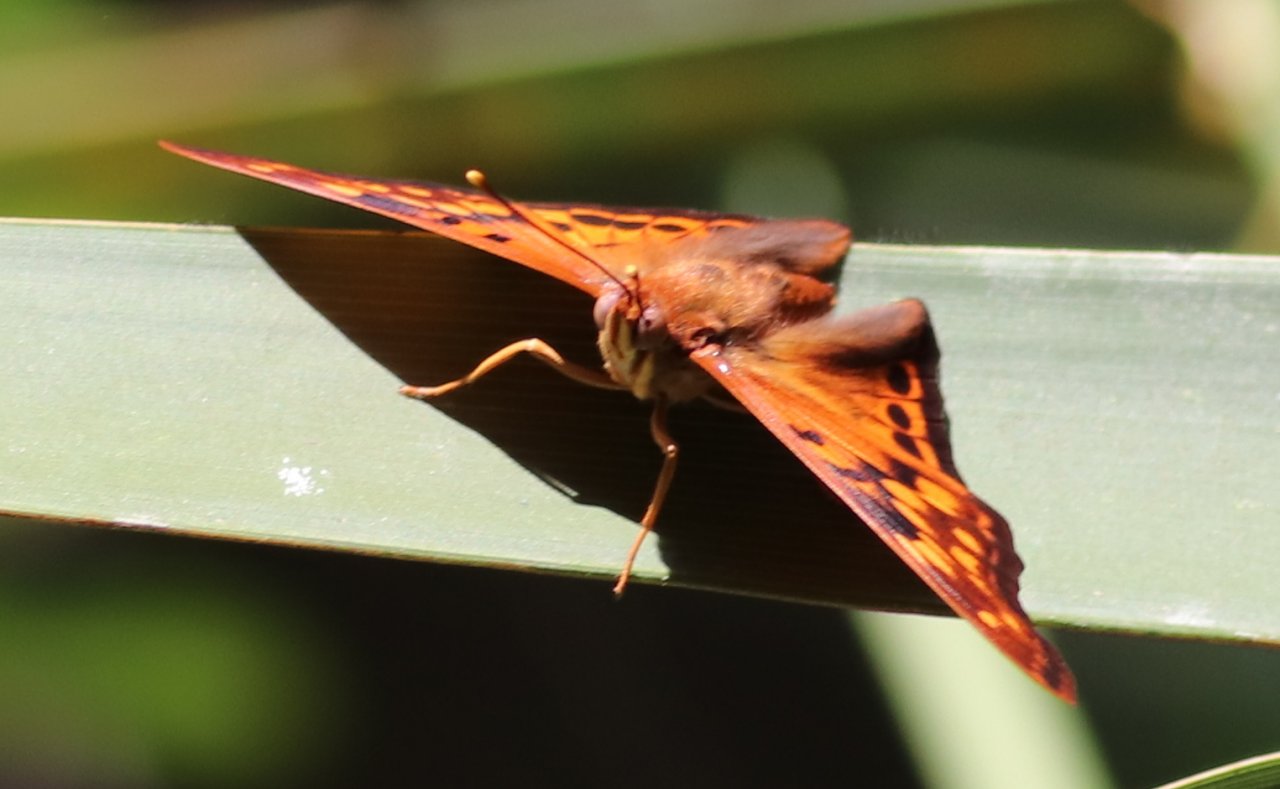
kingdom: Animalia
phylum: Arthropoda
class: Insecta
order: Lepidoptera
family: Nymphalidae
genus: Asterocampa
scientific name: Asterocampa clyton
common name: Tawny Emperor
